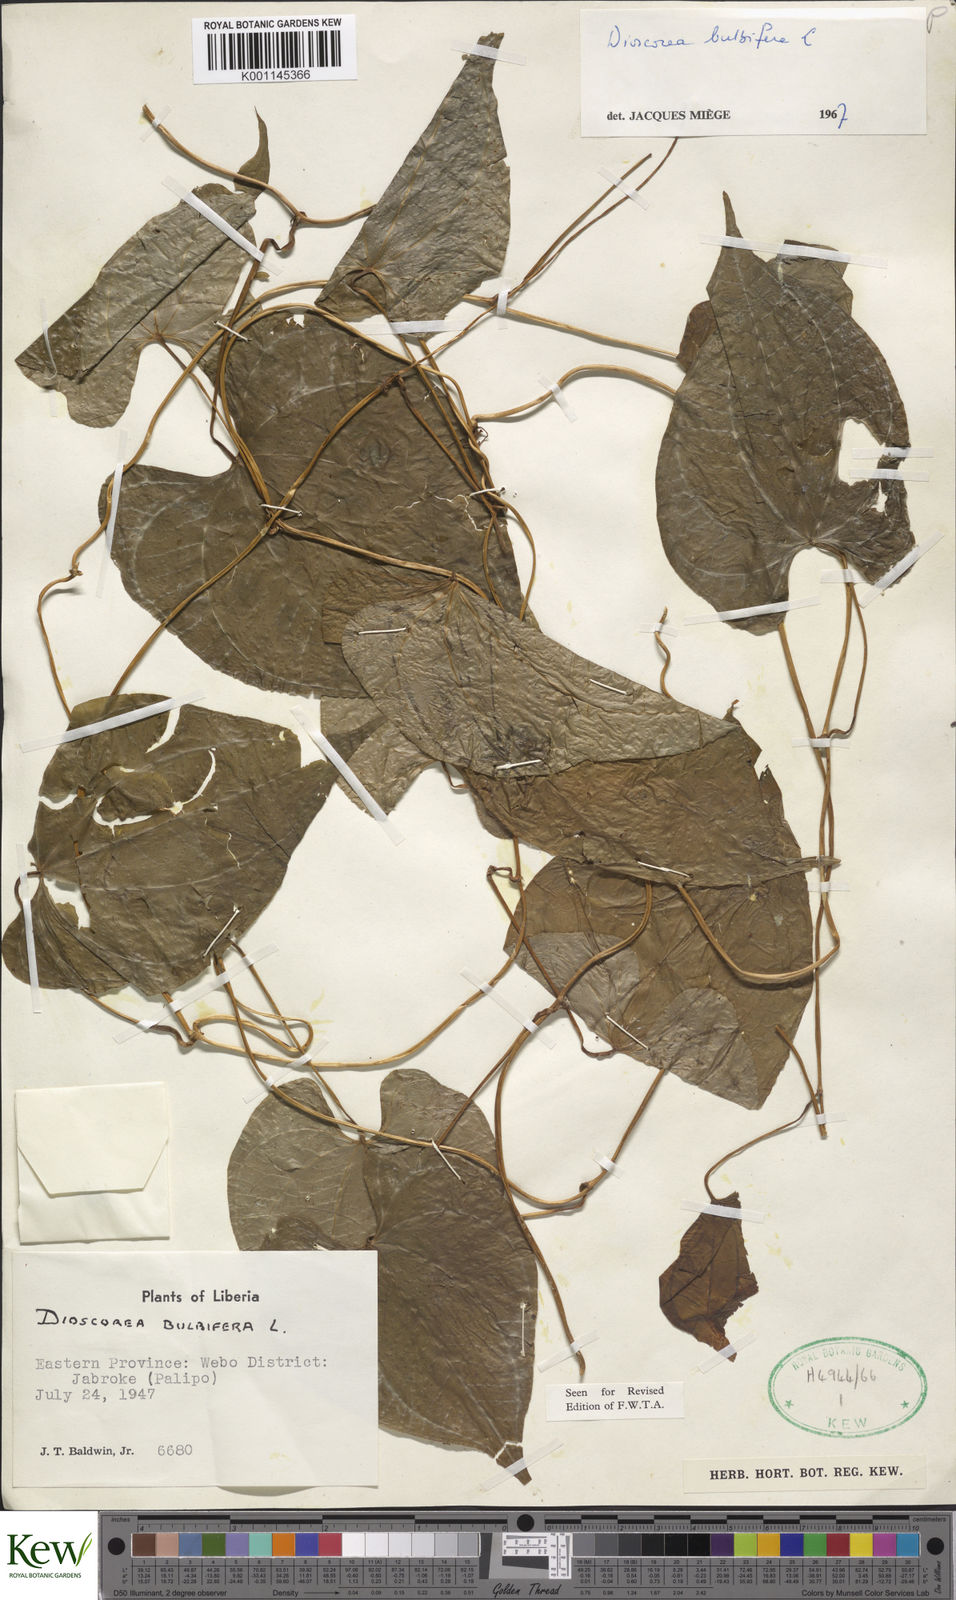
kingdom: Plantae
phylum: Tracheophyta
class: Liliopsida
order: Dioscoreales
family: Dioscoreaceae
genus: Dioscorea
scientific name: Dioscorea bulbifera
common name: Air yam
